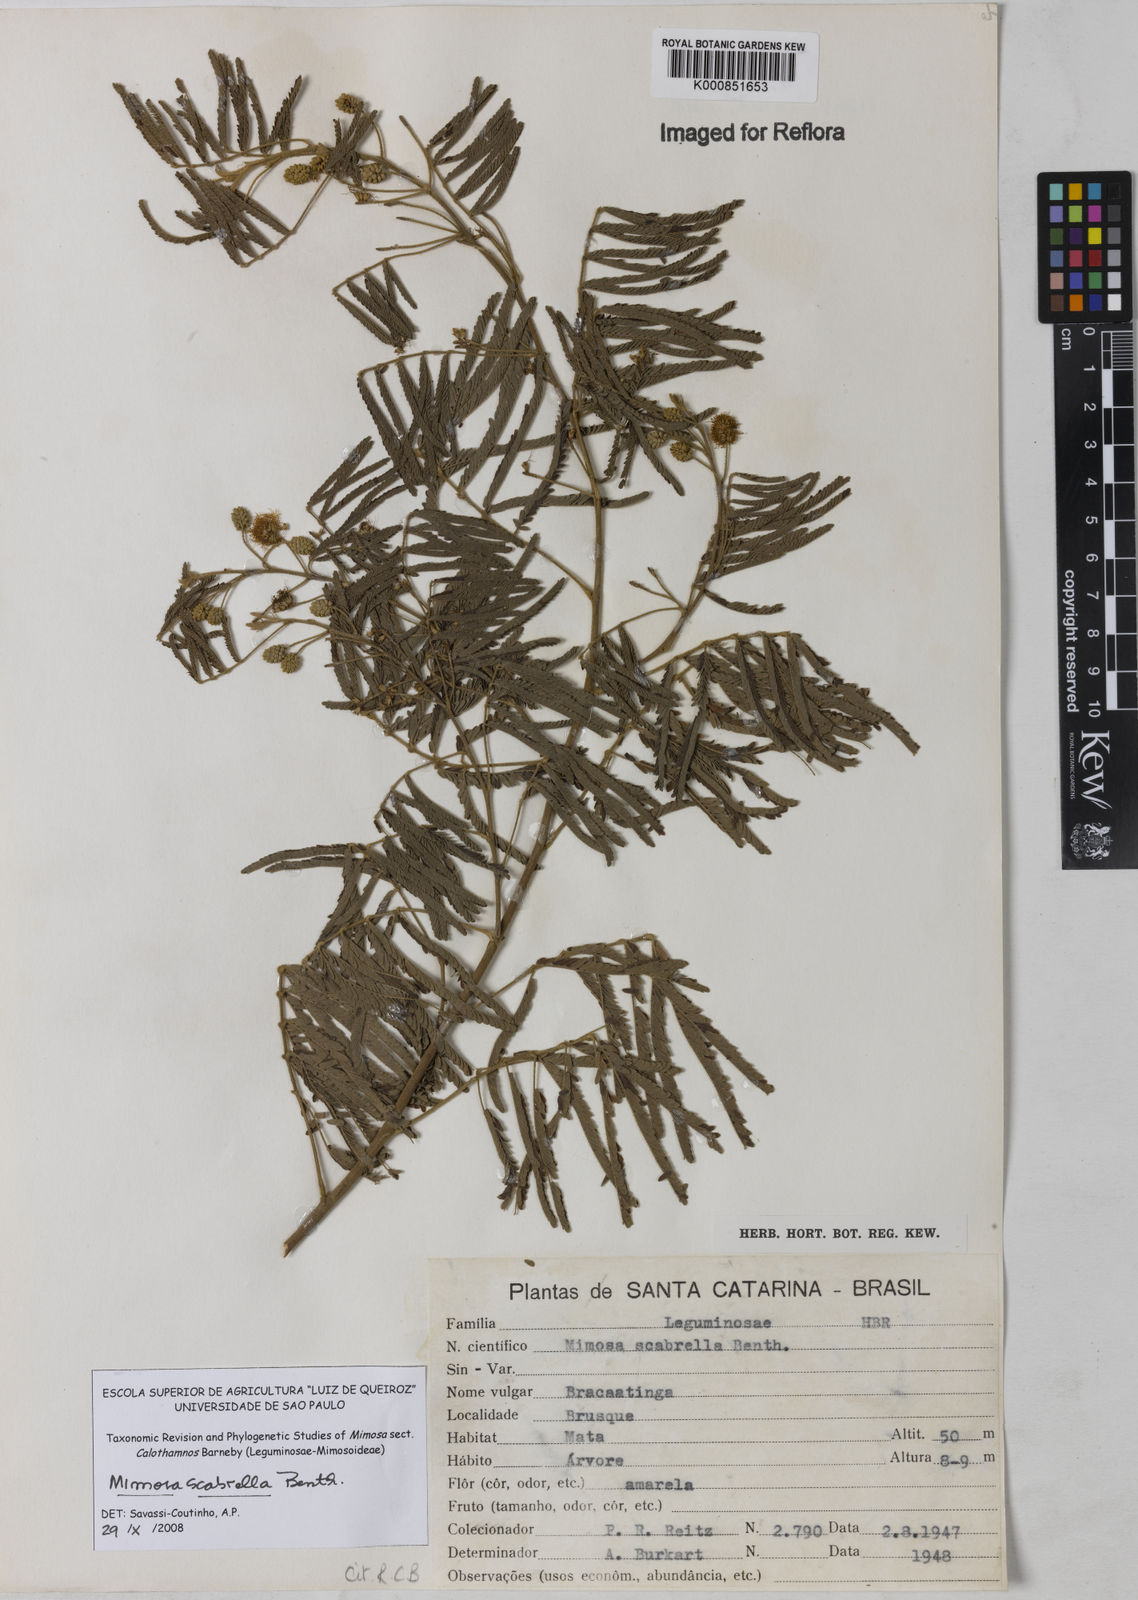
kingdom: Plantae
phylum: Tracheophyta
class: Magnoliopsida
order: Fabales
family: Fabaceae
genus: Mimosa
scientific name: Mimosa scabrella
